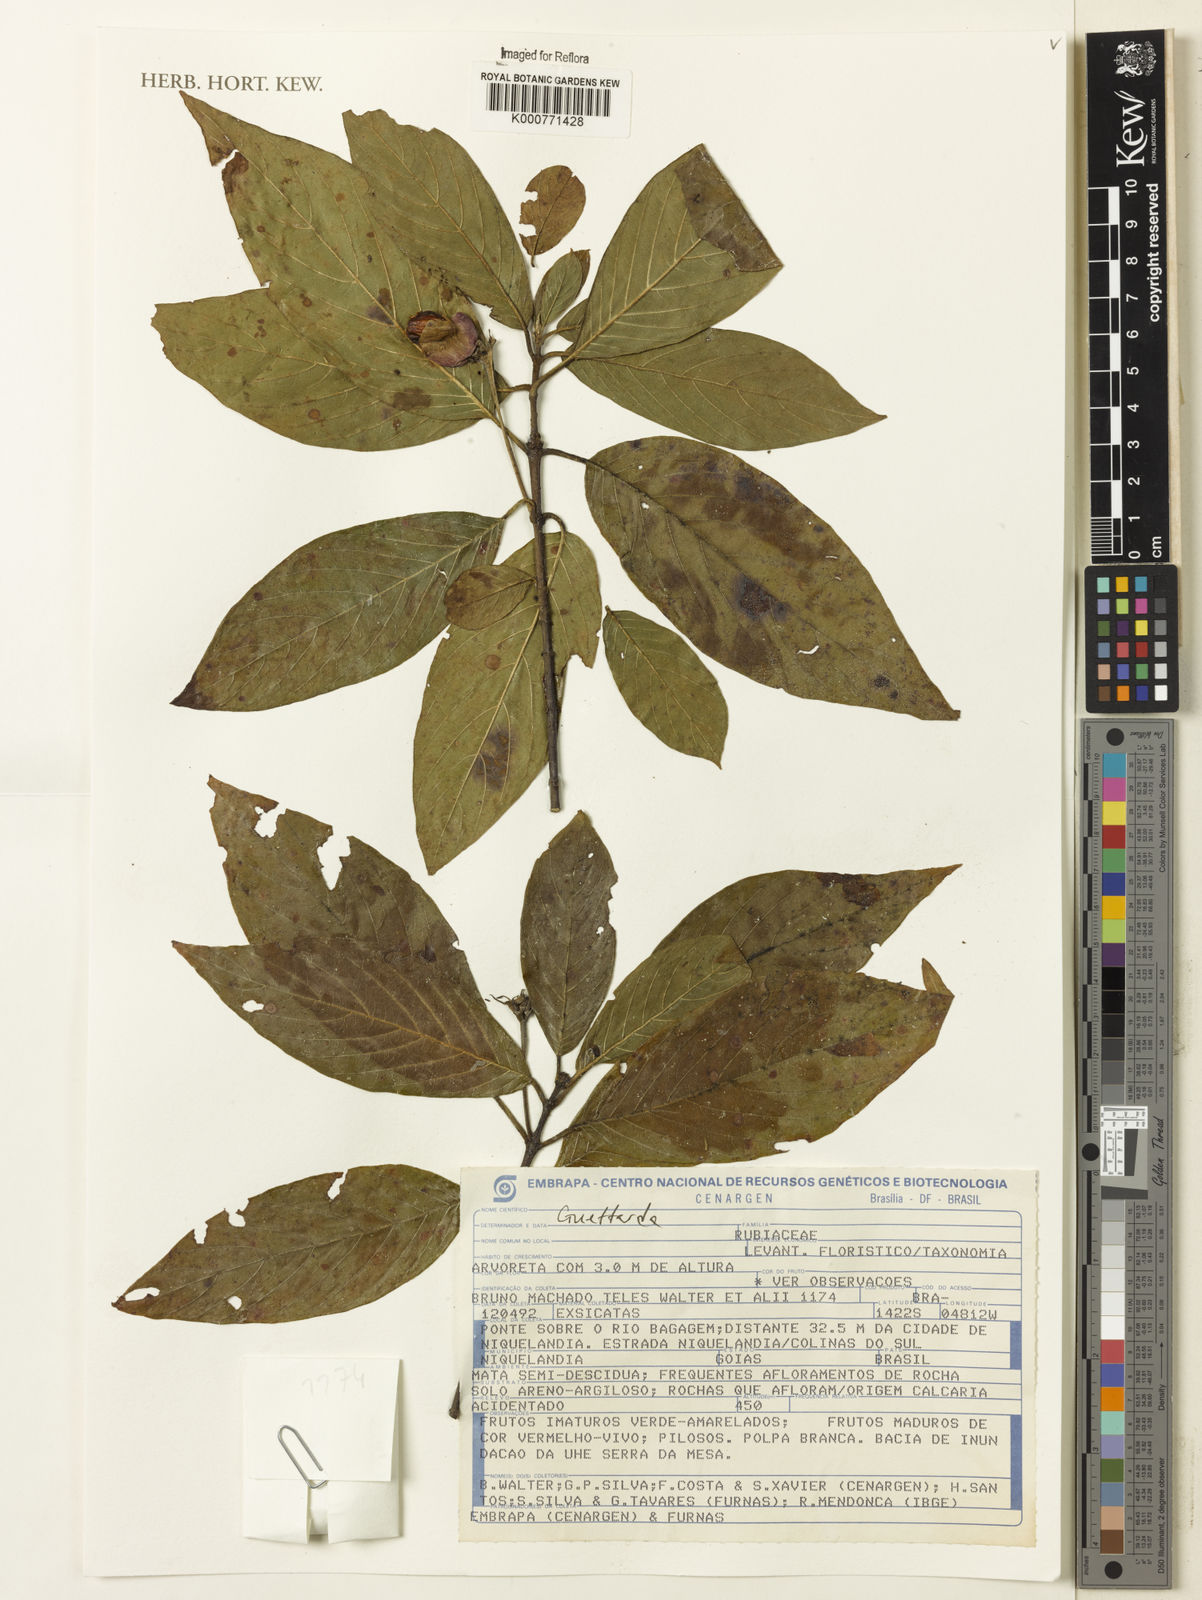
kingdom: Plantae
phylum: Tracheophyta
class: Magnoliopsida
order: Gentianales
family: Rubiaceae
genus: Guettarda
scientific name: Guettarda
